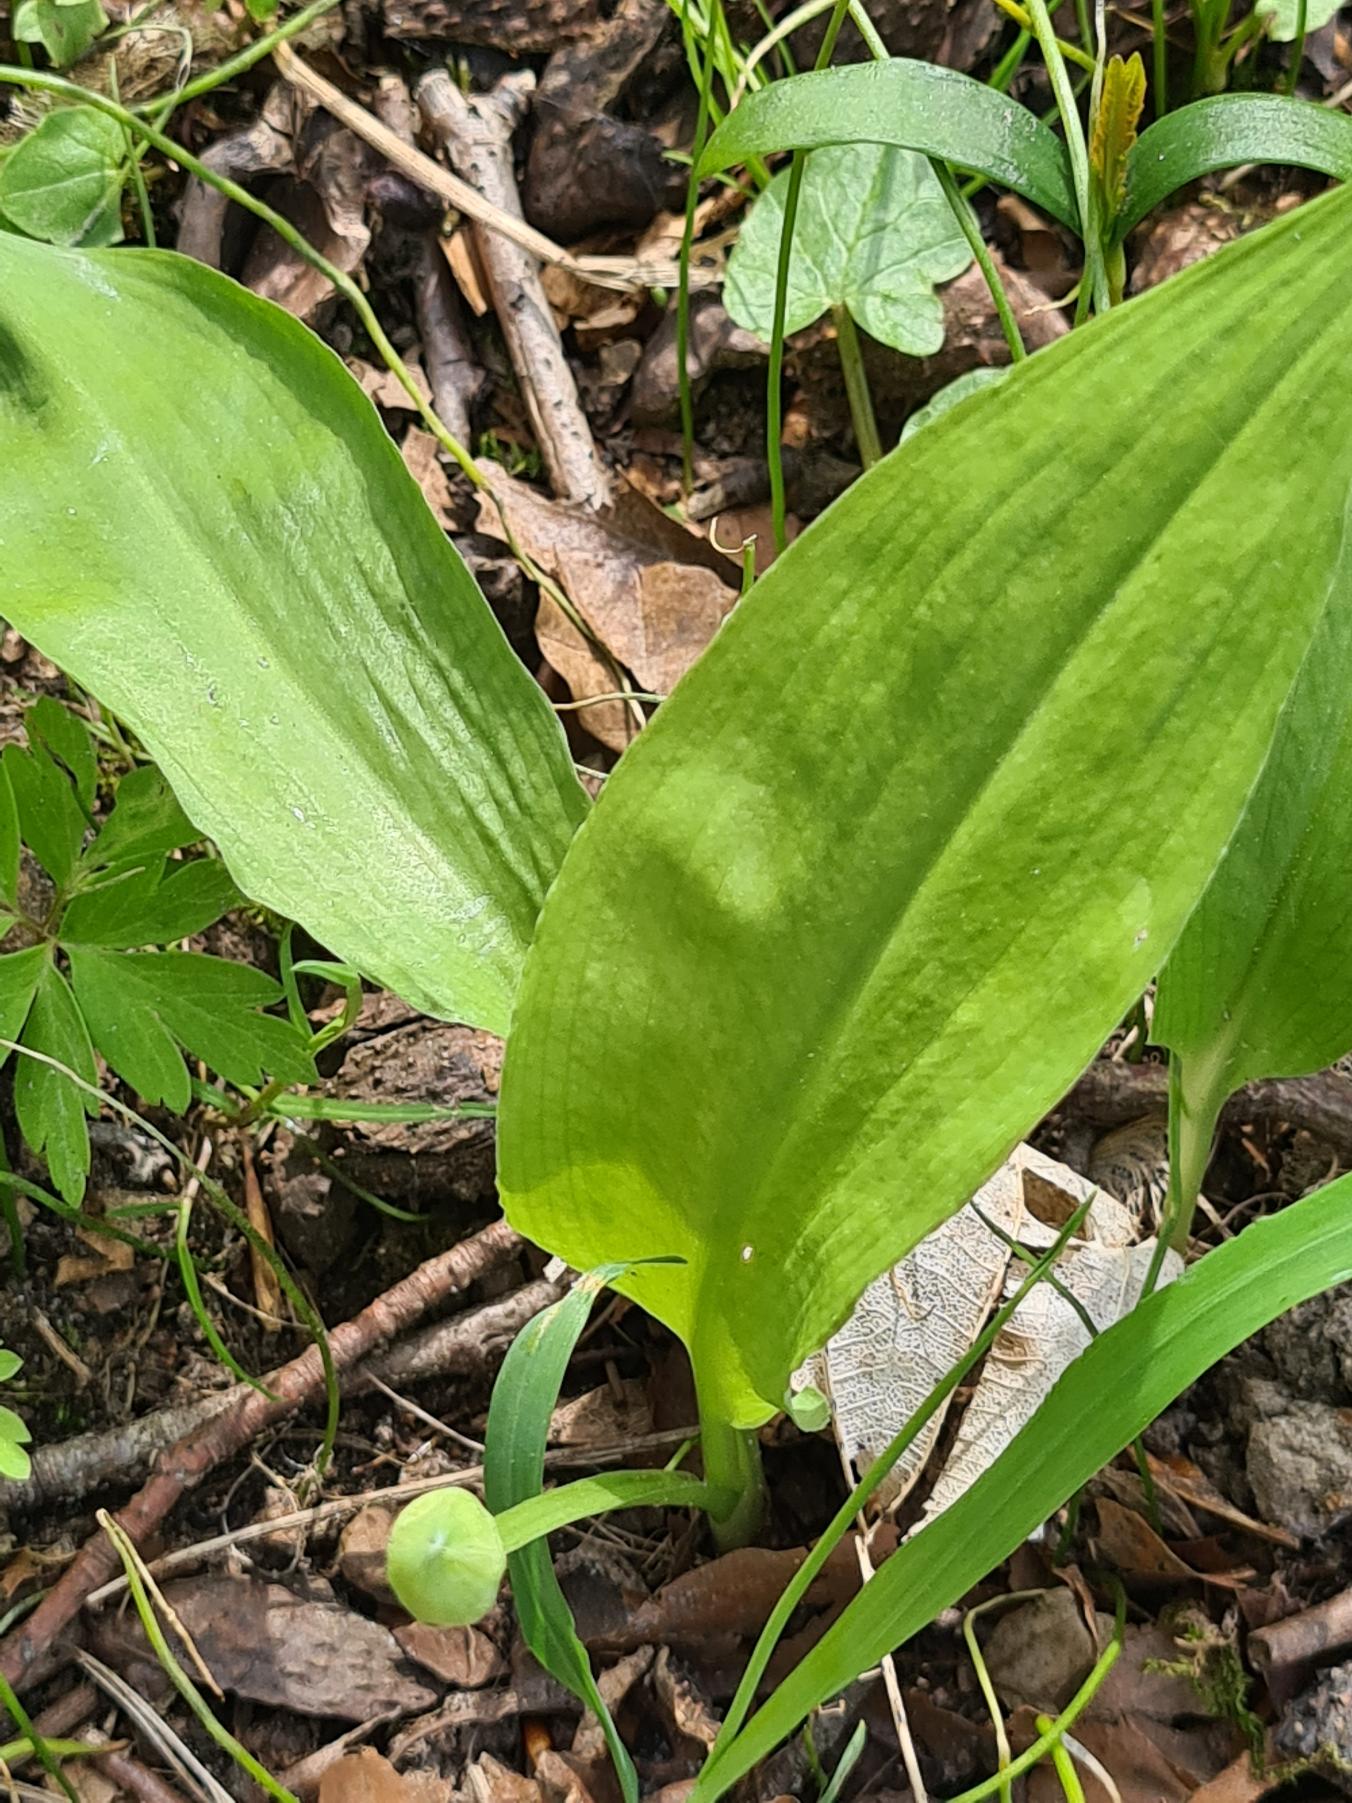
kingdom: Plantae
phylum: Tracheophyta
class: Liliopsida
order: Asparagales
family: Amaryllidaceae
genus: Allium
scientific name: Allium ursinum
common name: Rams-løg
